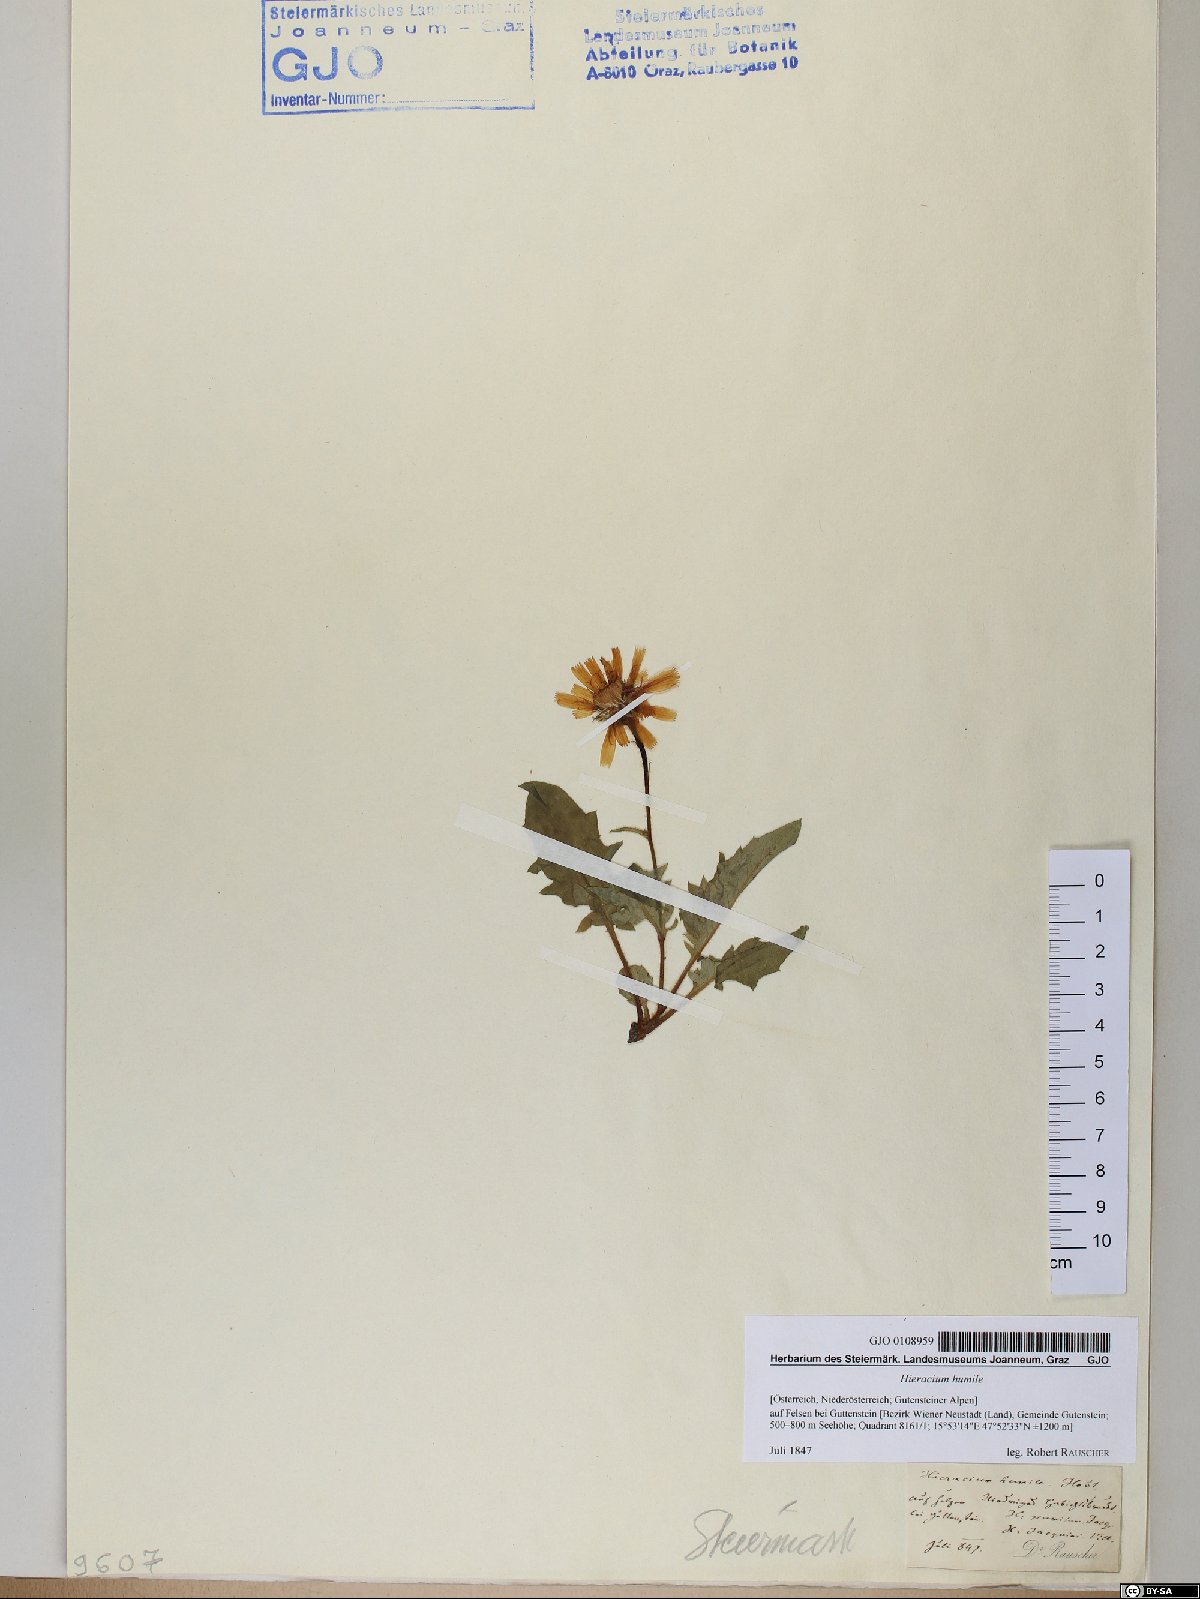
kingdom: Plantae
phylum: Tracheophyta
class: Magnoliopsida
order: Asterales
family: Asteraceae
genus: Hieracium
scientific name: Hieracium humile
